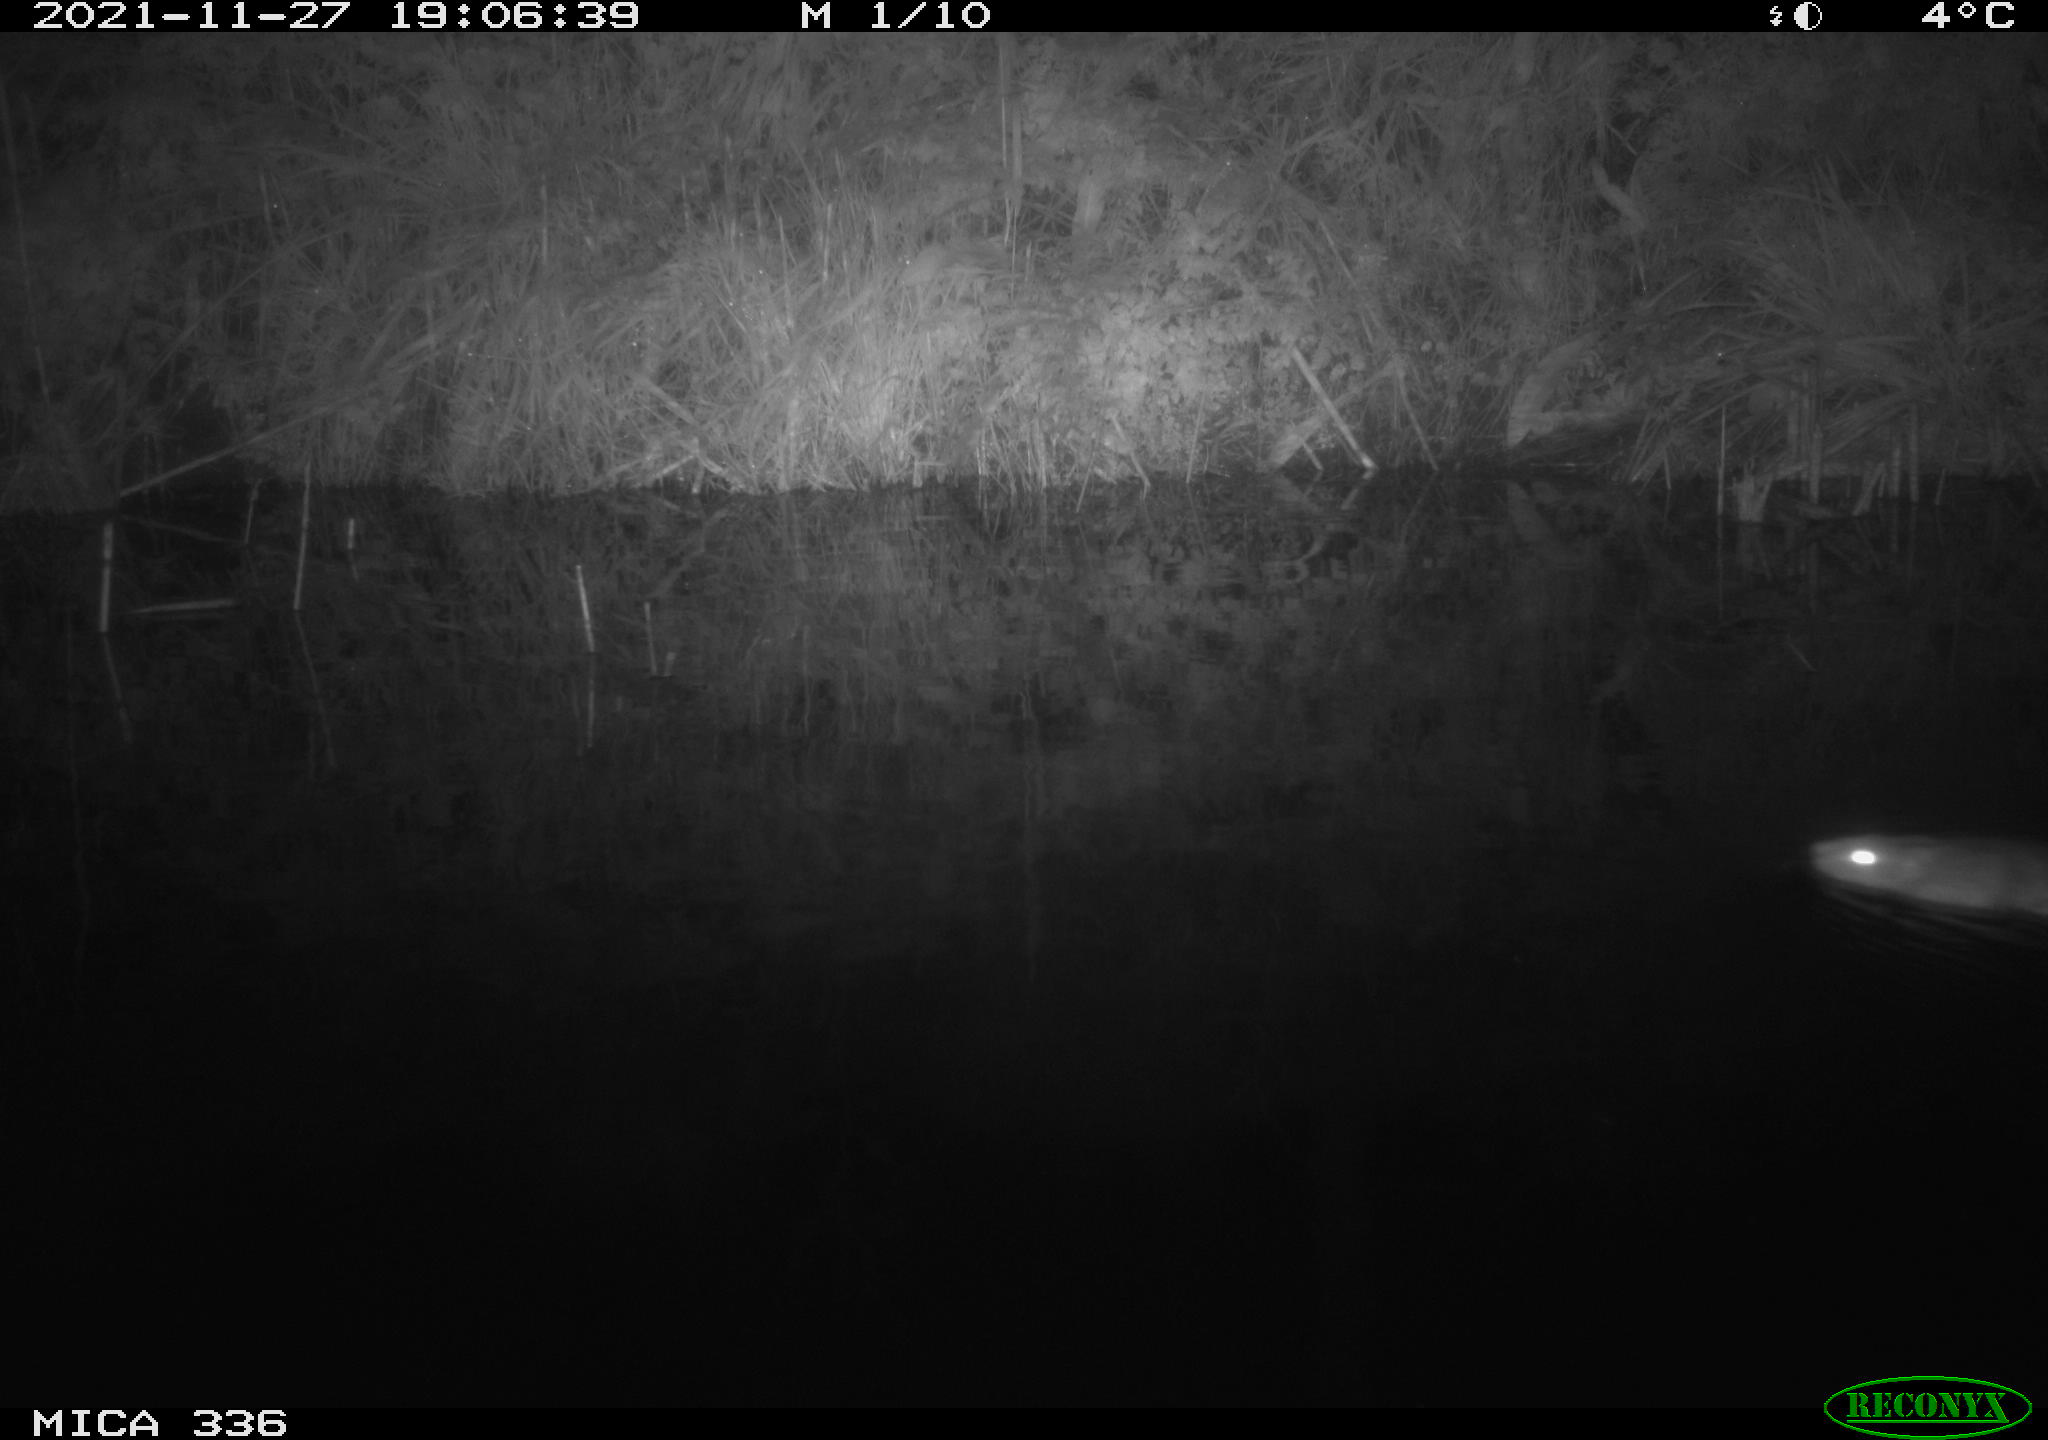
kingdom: Animalia
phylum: Chordata
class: Mammalia
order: Rodentia
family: Cricetidae
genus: Ondatra
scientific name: Ondatra zibethicus
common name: Muskrat
